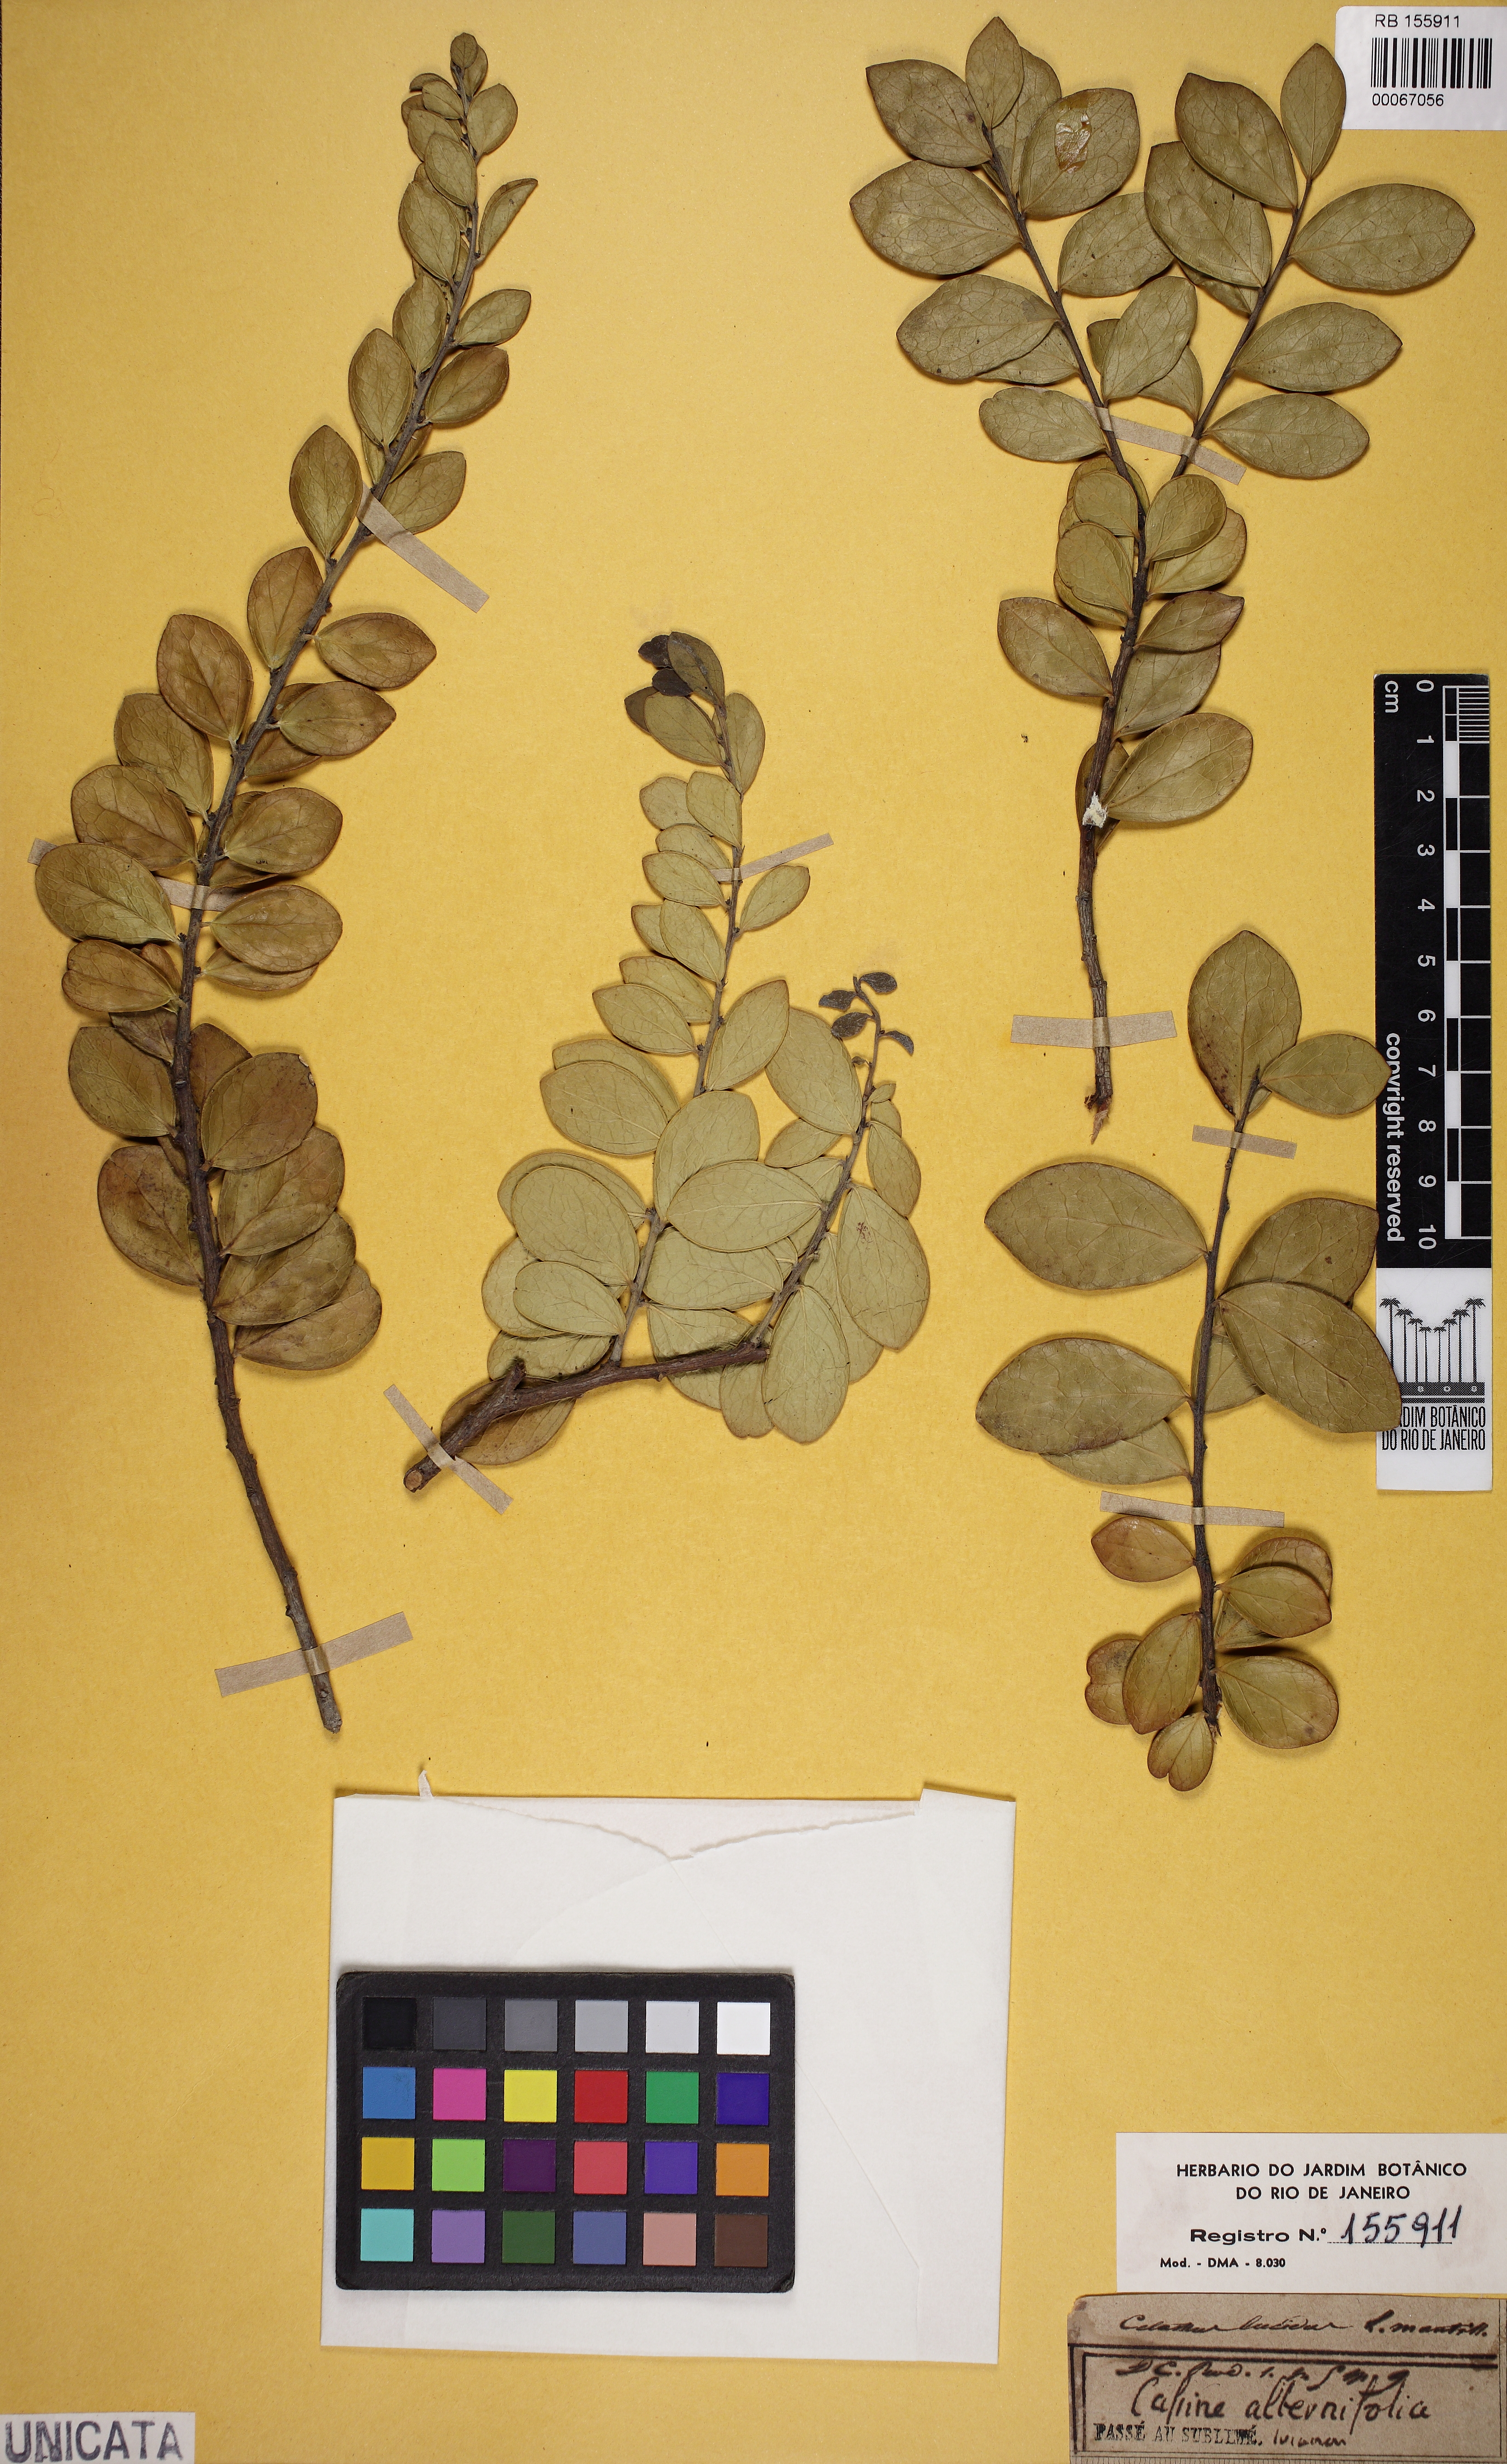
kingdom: Plantae
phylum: Tracheophyta
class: Magnoliopsida
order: Celastrales
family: Celastraceae
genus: Gymnosporia
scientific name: Gymnosporia lucida
